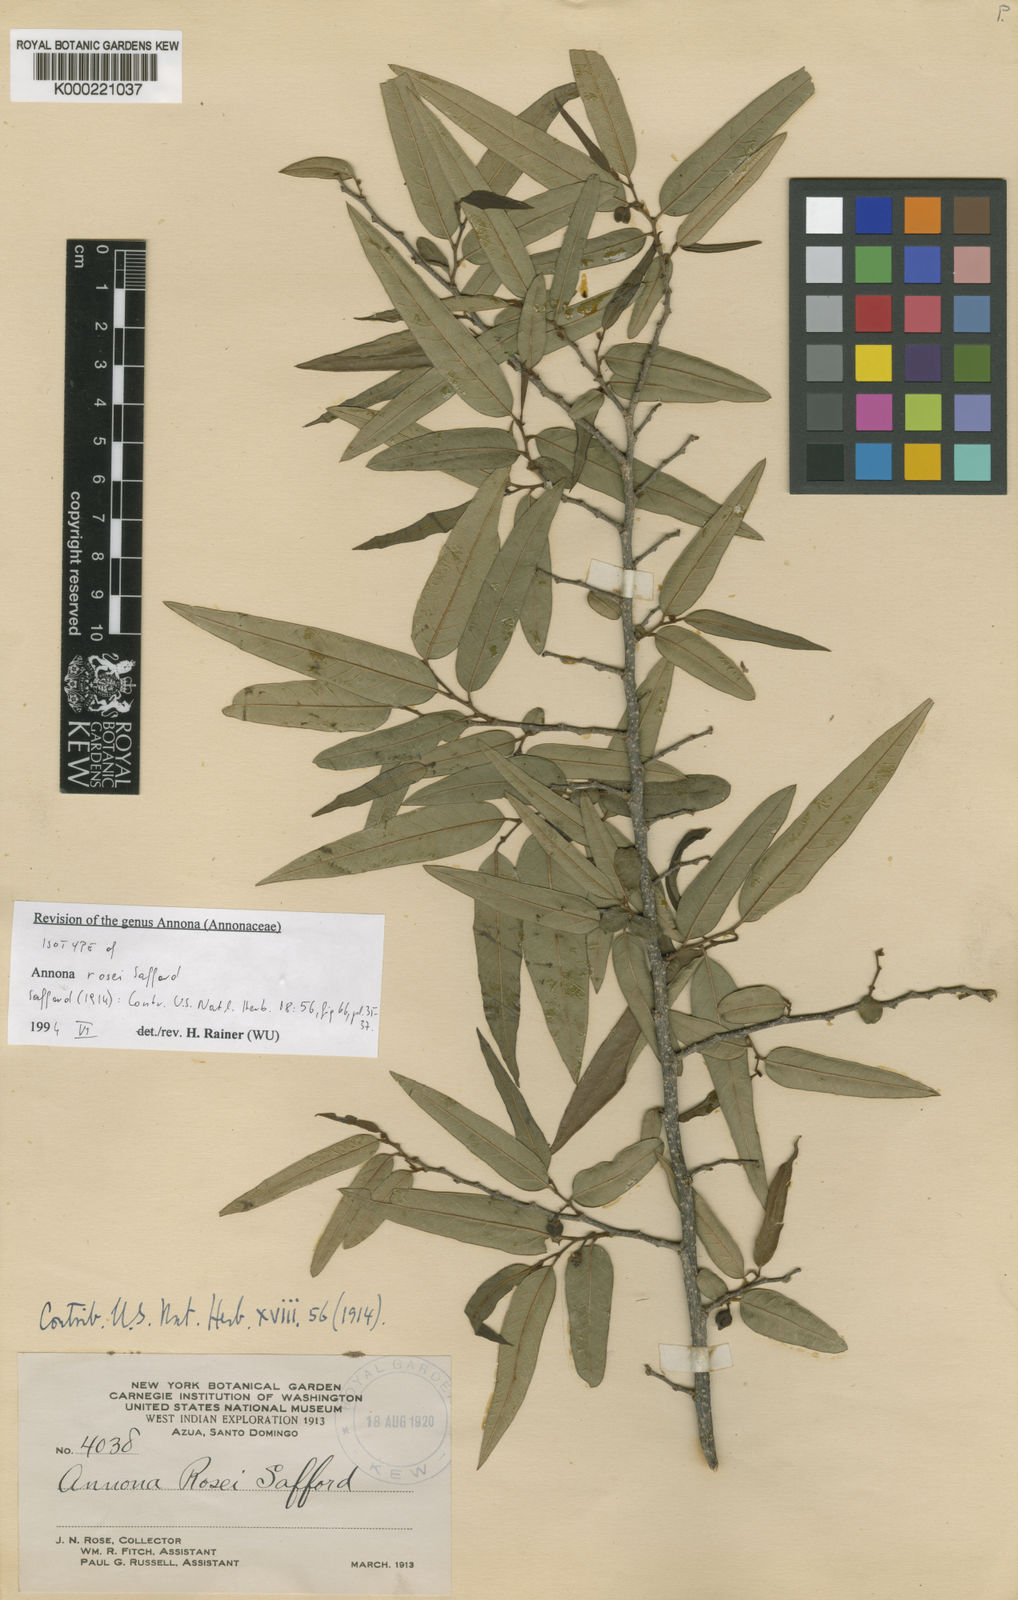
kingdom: Plantae
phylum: Tracheophyta
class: Magnoliopsida
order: Magnoliales
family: Annonaceae
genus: Annona
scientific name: Annona rosei
